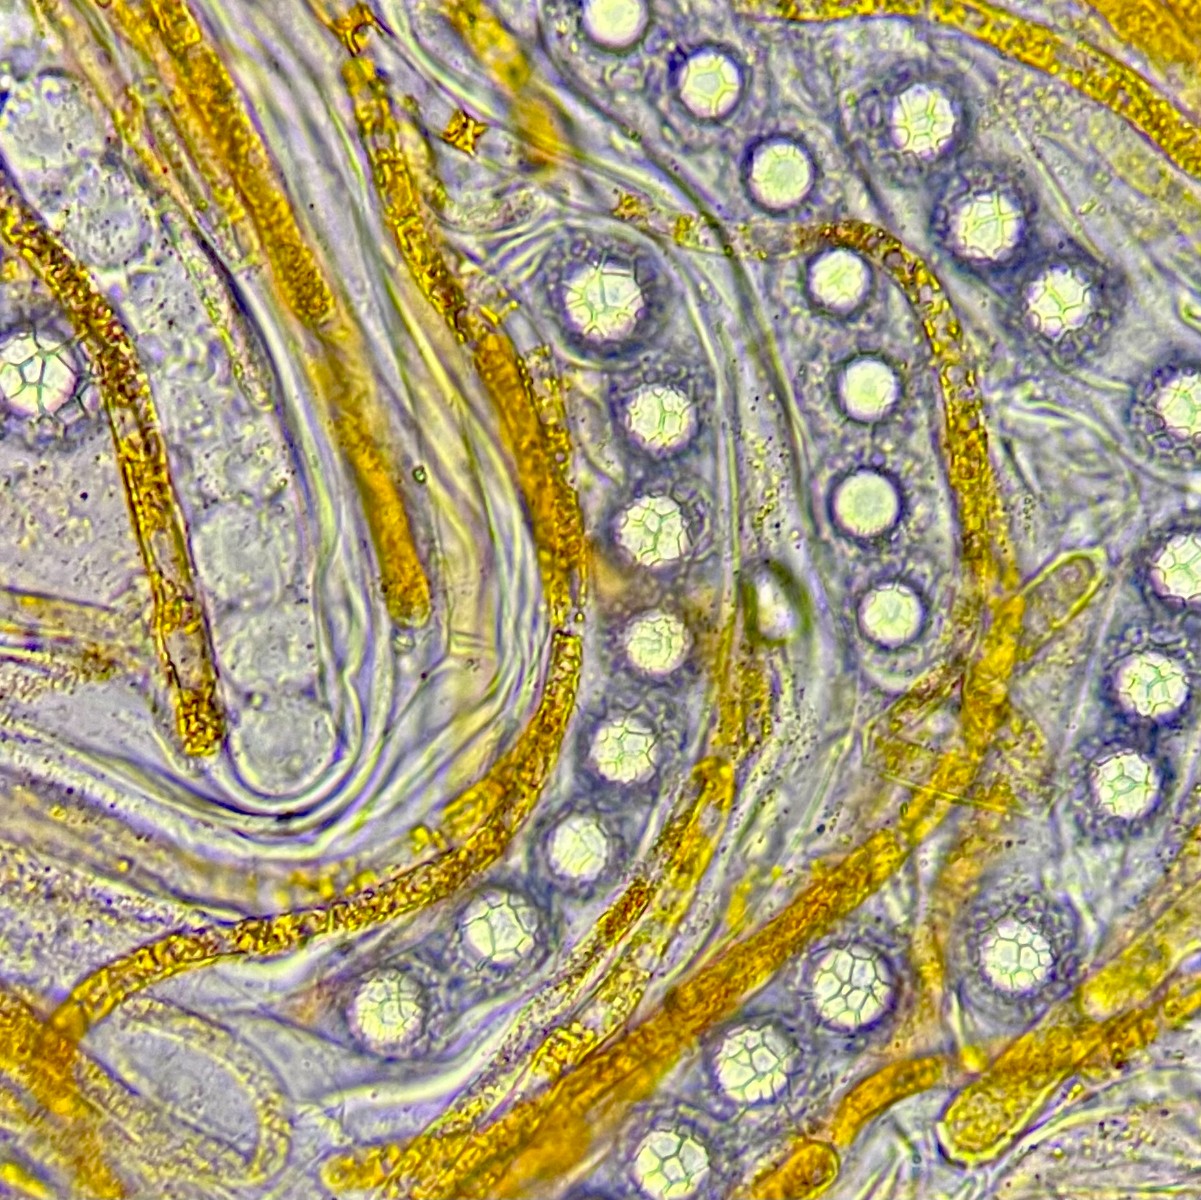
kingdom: Fungi
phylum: Ascomycota
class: Pezizomycetes
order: Pezizales
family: Pyronemataceae
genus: Lamprospora
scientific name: Lamprospora miniata
